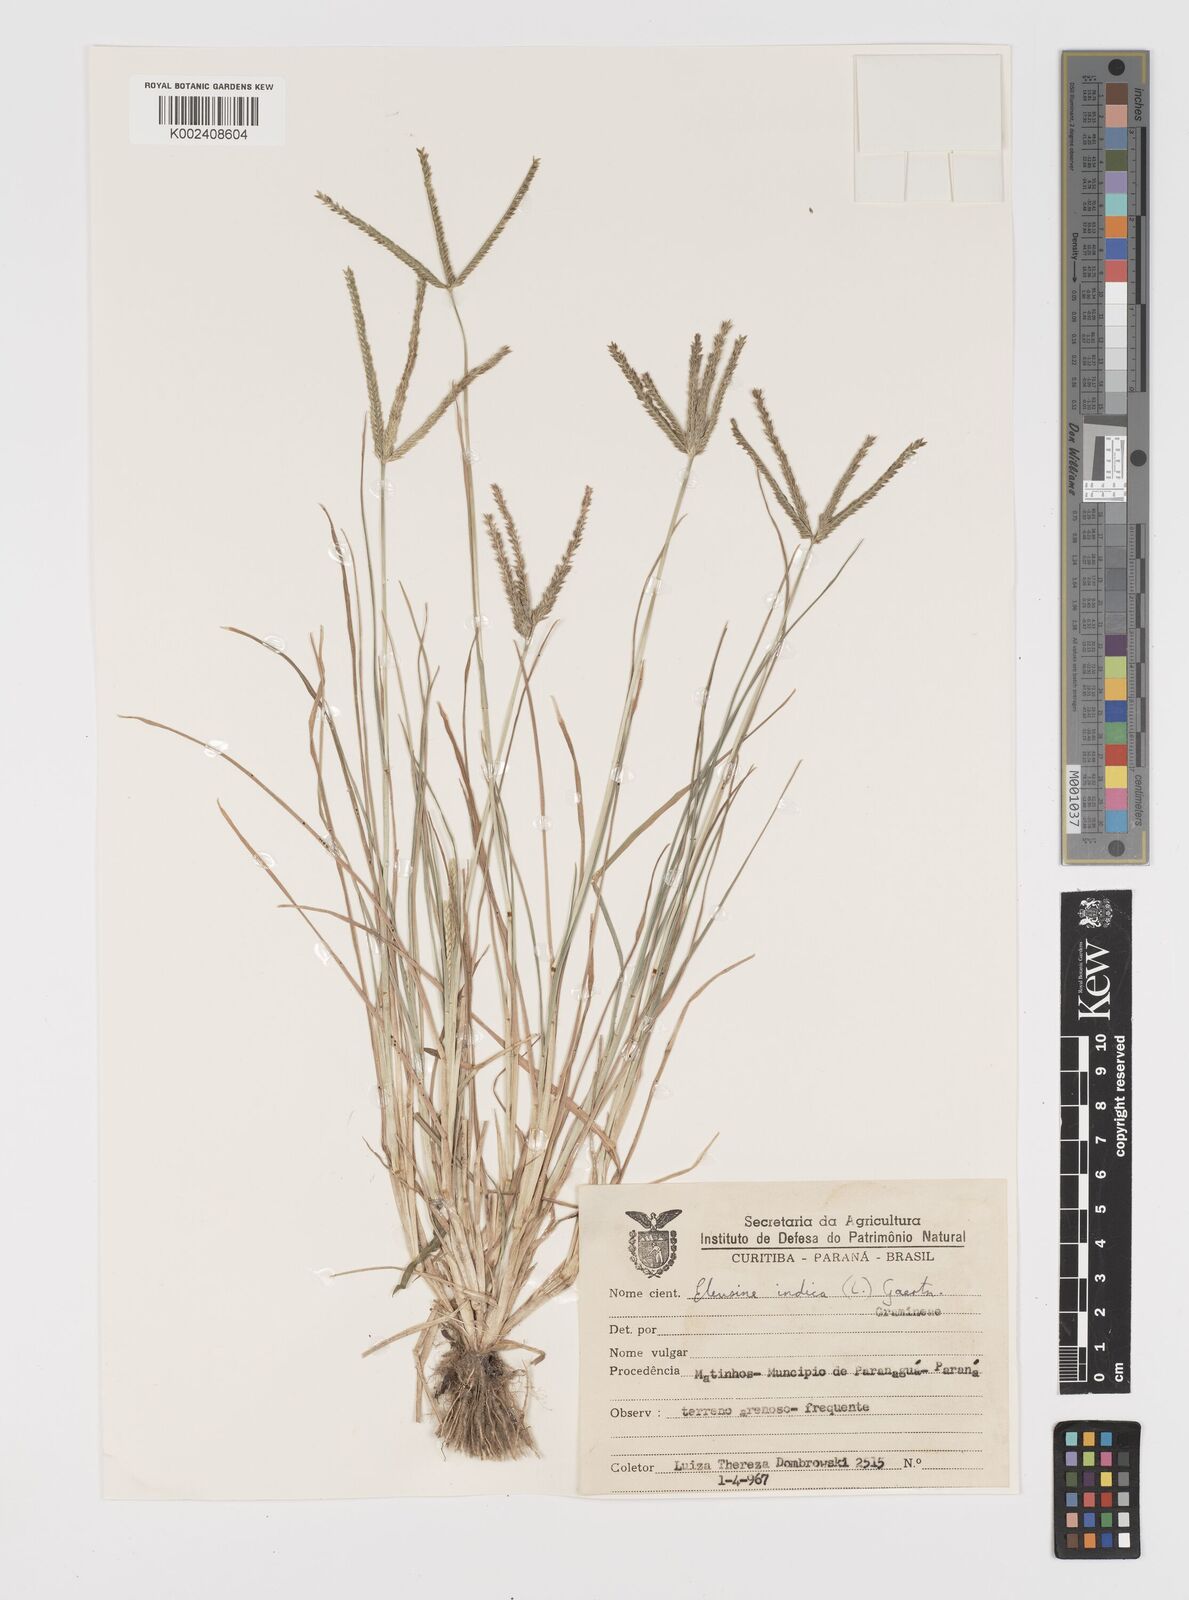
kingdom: Plantae
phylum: Tracheophyta
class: Liliopsida
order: Poales
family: Poaceae
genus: Eleusine
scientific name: Eleusine indica
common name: Yard-grass
